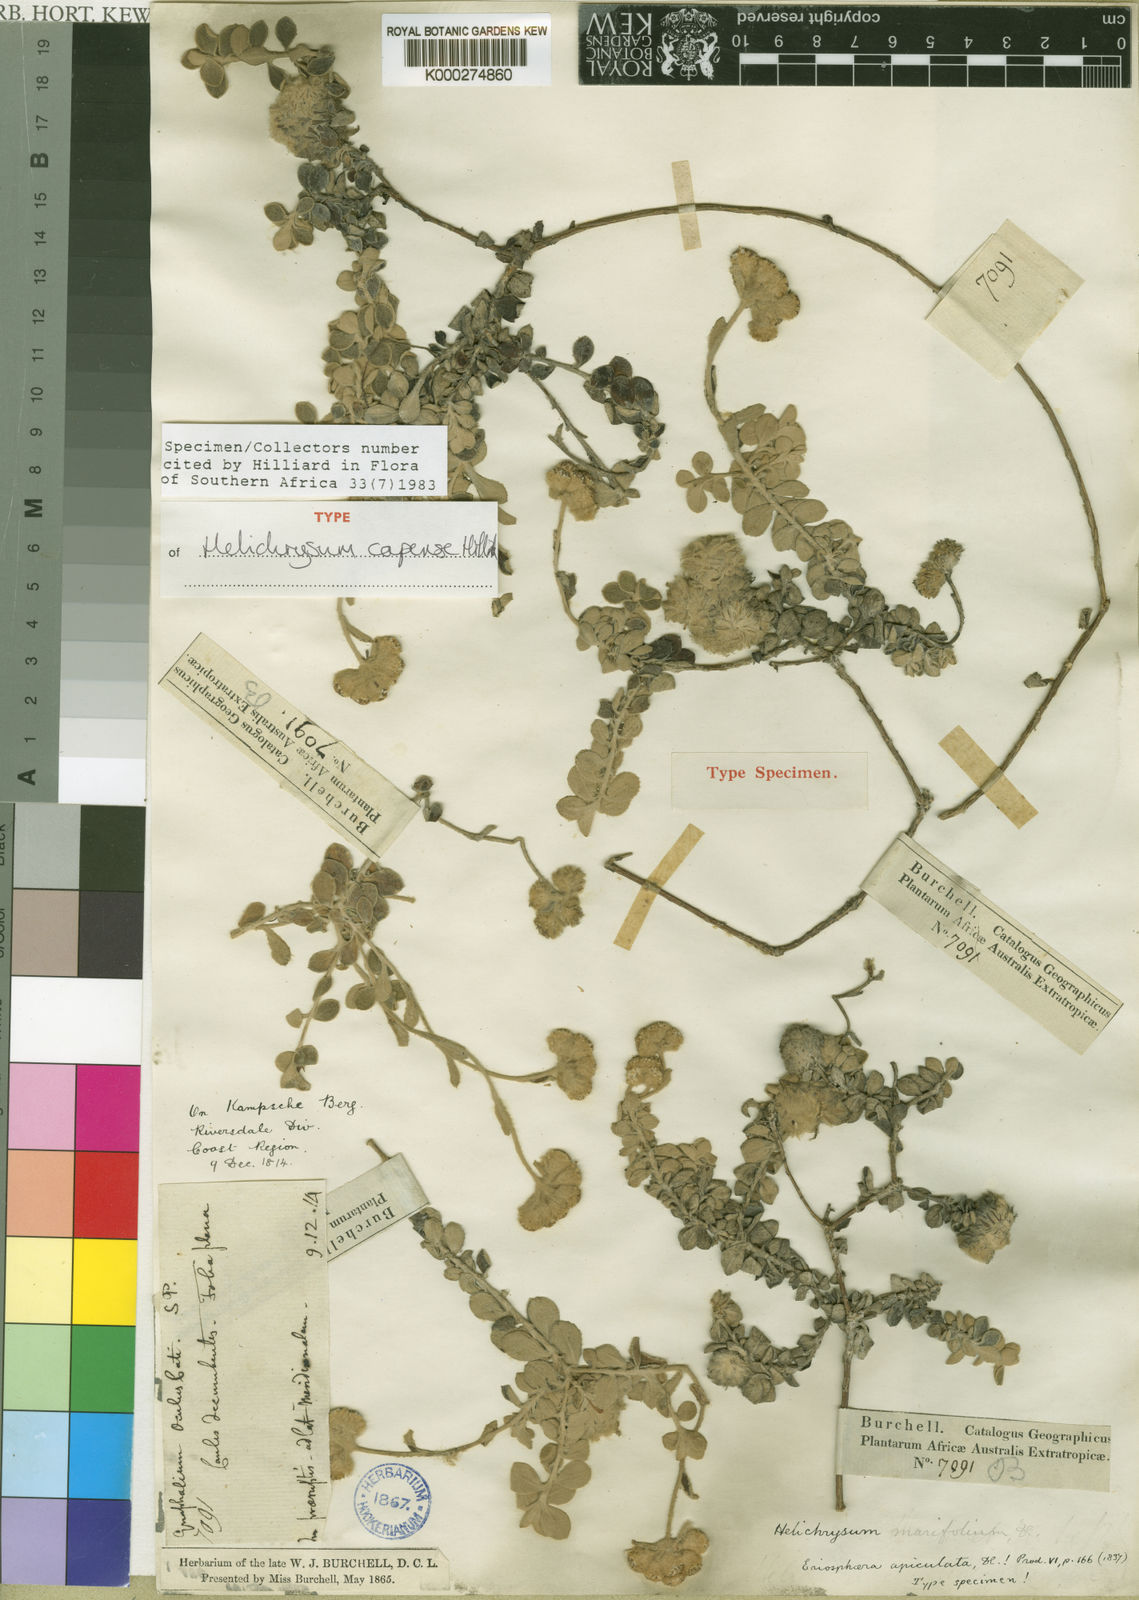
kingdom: Plantae
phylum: Tracheophyta
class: Magnoliopsida
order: Asterales
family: Asteraceae
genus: Helichrysum
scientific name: Helichrysum capense
